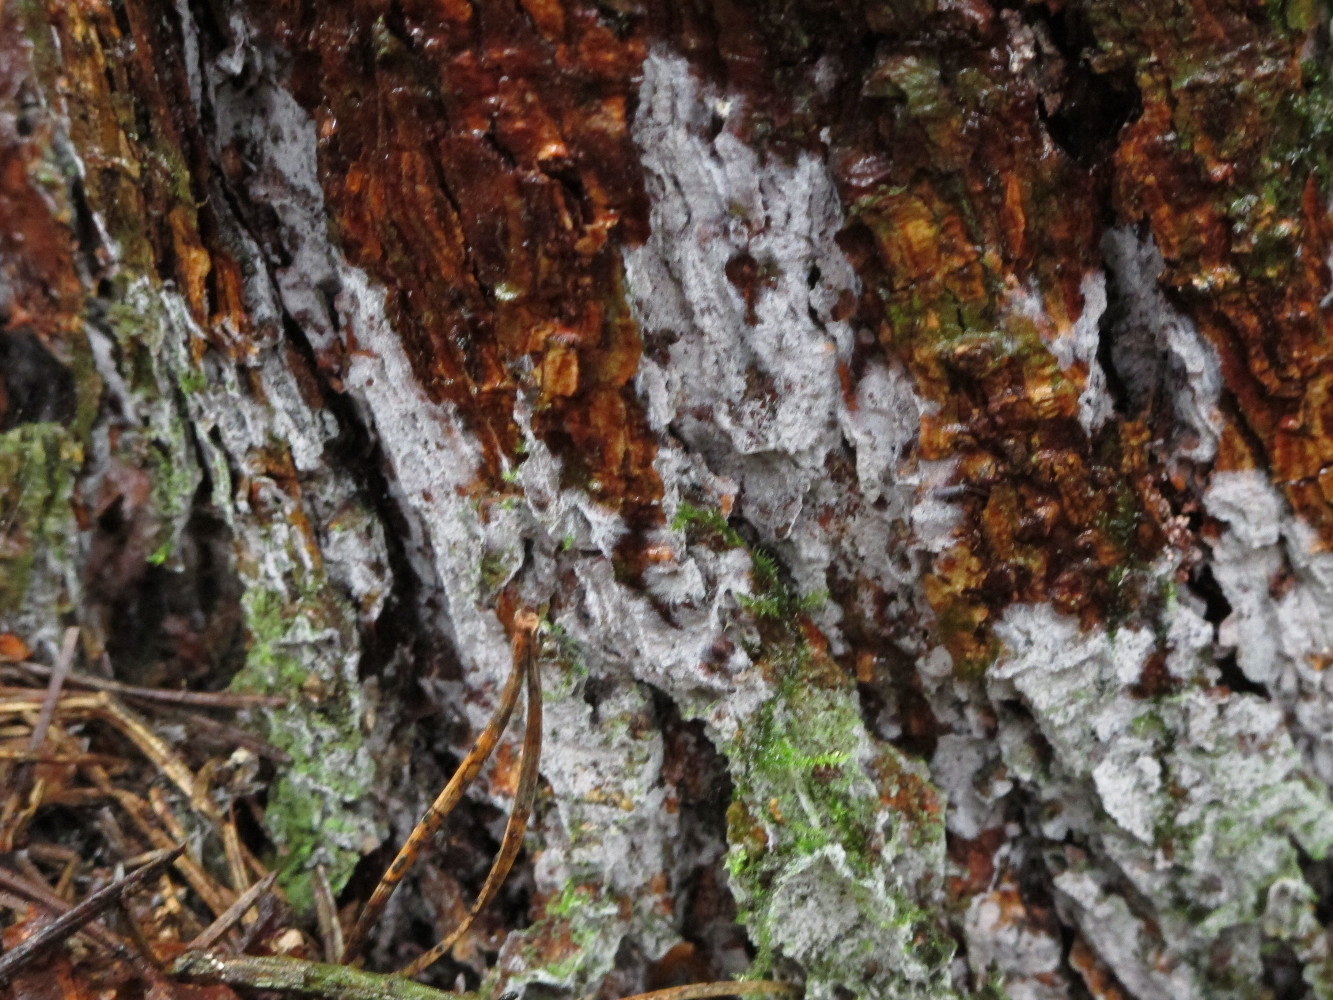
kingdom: Fungi
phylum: Basidiomycota
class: Agaricomycetes
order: Atheliales
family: Atheliaceae
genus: Tylospora
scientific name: Tylospora fibrillosa
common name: vortesporet jordhinde
